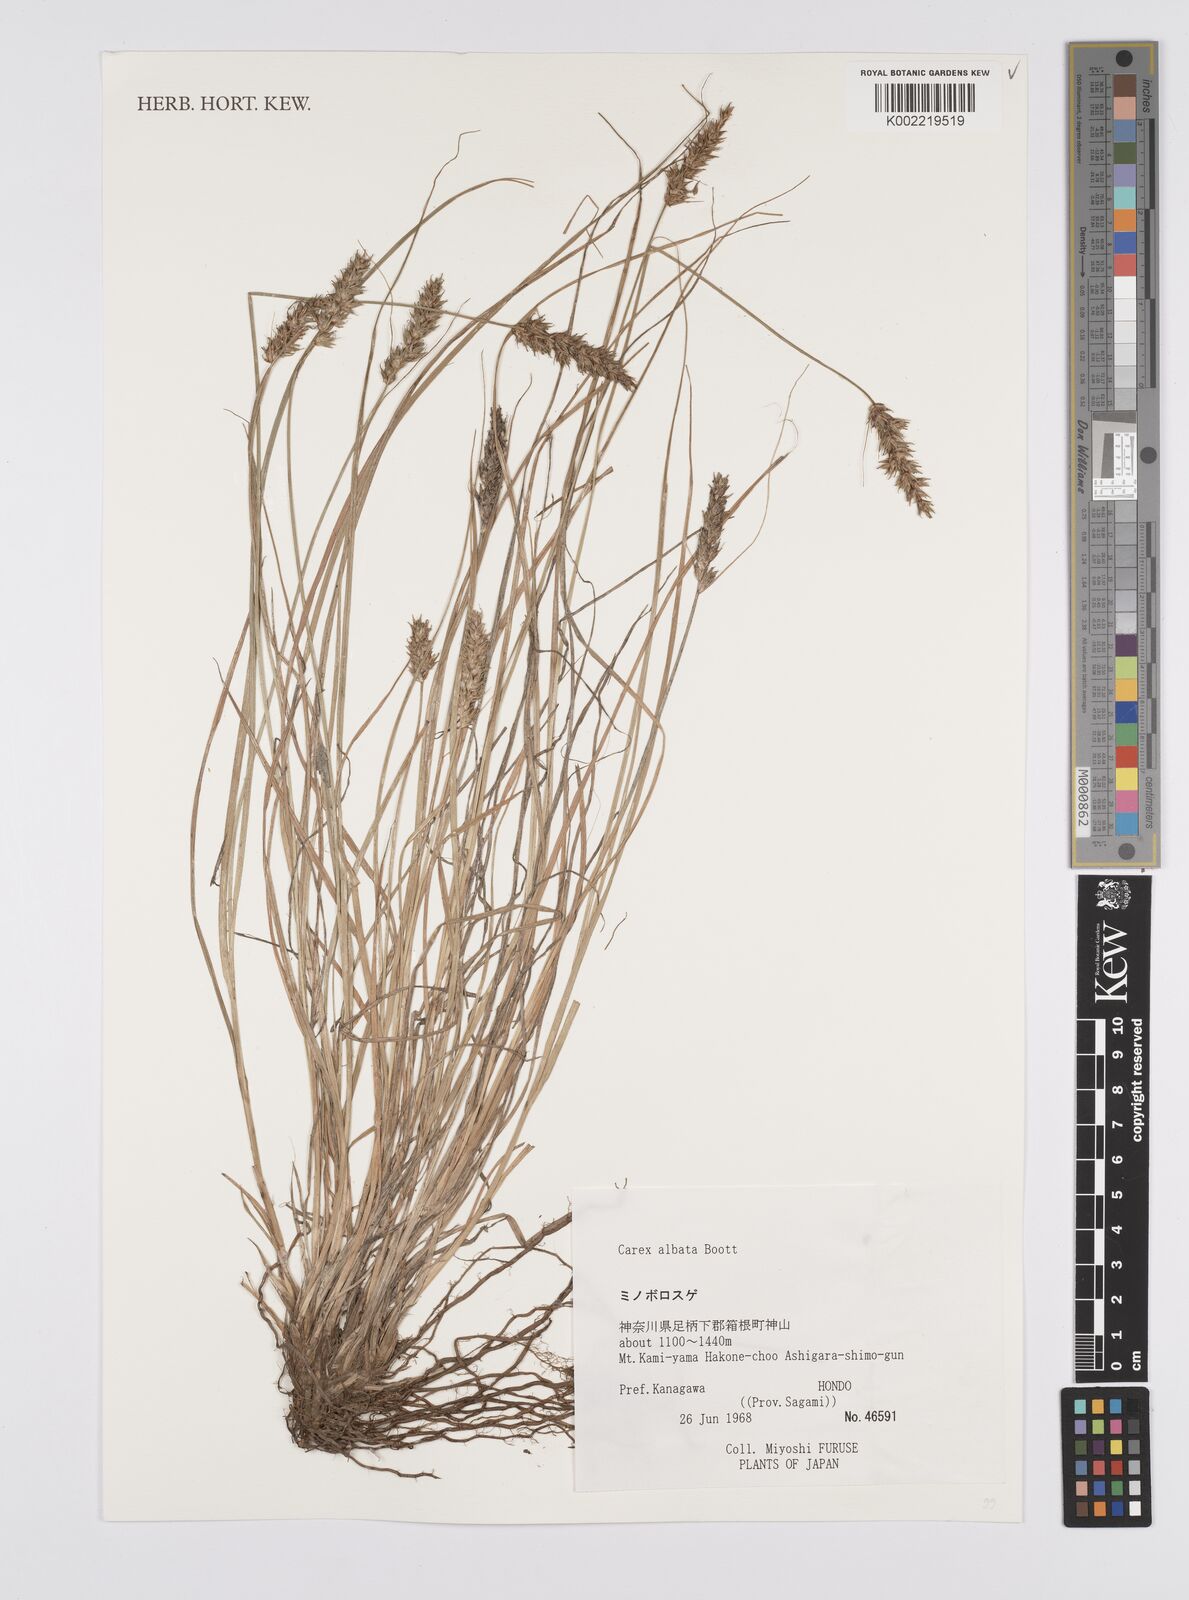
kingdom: Plantae
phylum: Tracheophyta
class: Liliopsida
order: Poales
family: Cyperaceae
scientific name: Cyperaceae
